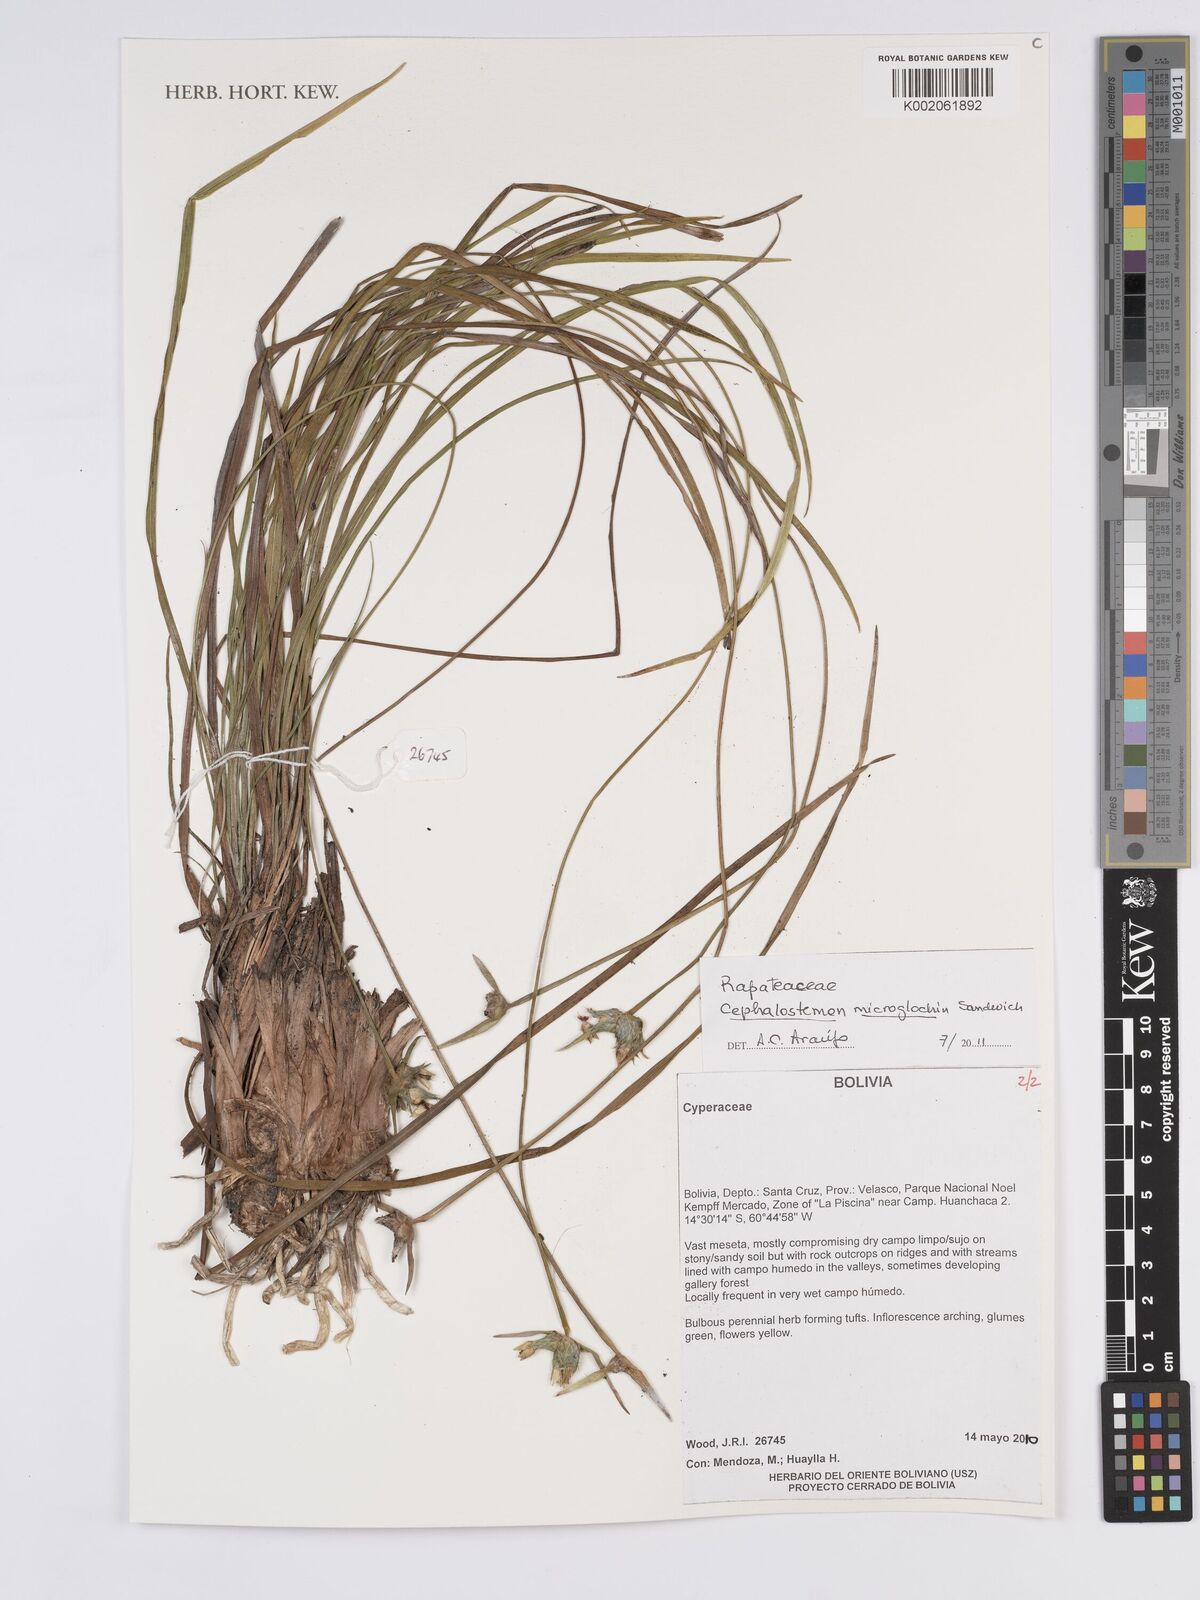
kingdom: Plantae
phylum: Tracheophyta
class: Liliopsida
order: Poales
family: Rapateaceae
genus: Cephalostemon
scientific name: Cephalostemon microglochin
